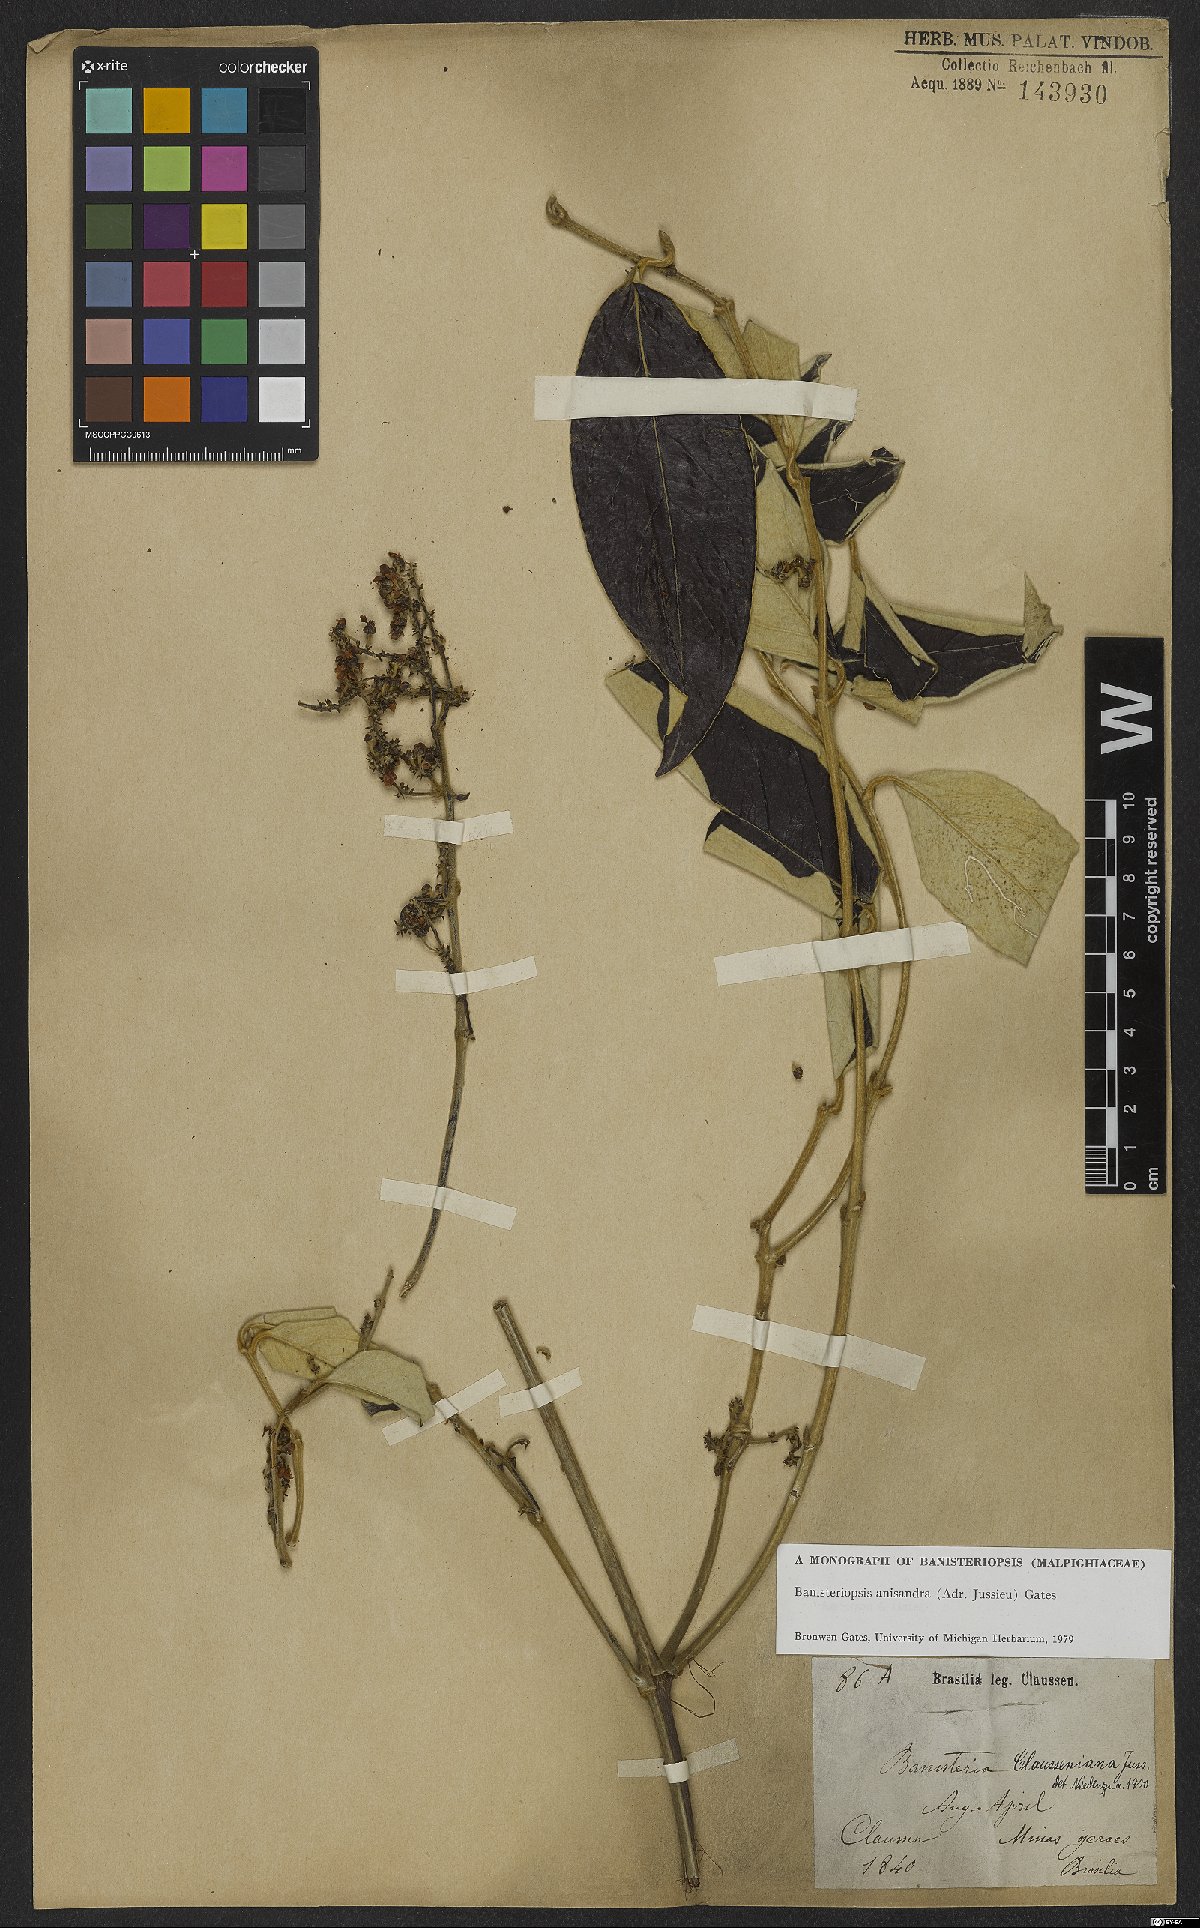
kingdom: Plantae
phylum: Tracheophyta
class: Magnoliopsida
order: Malpighiales
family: Malpighiaceae
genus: Banisteriopsis
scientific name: Banisteriopsis anisandra
